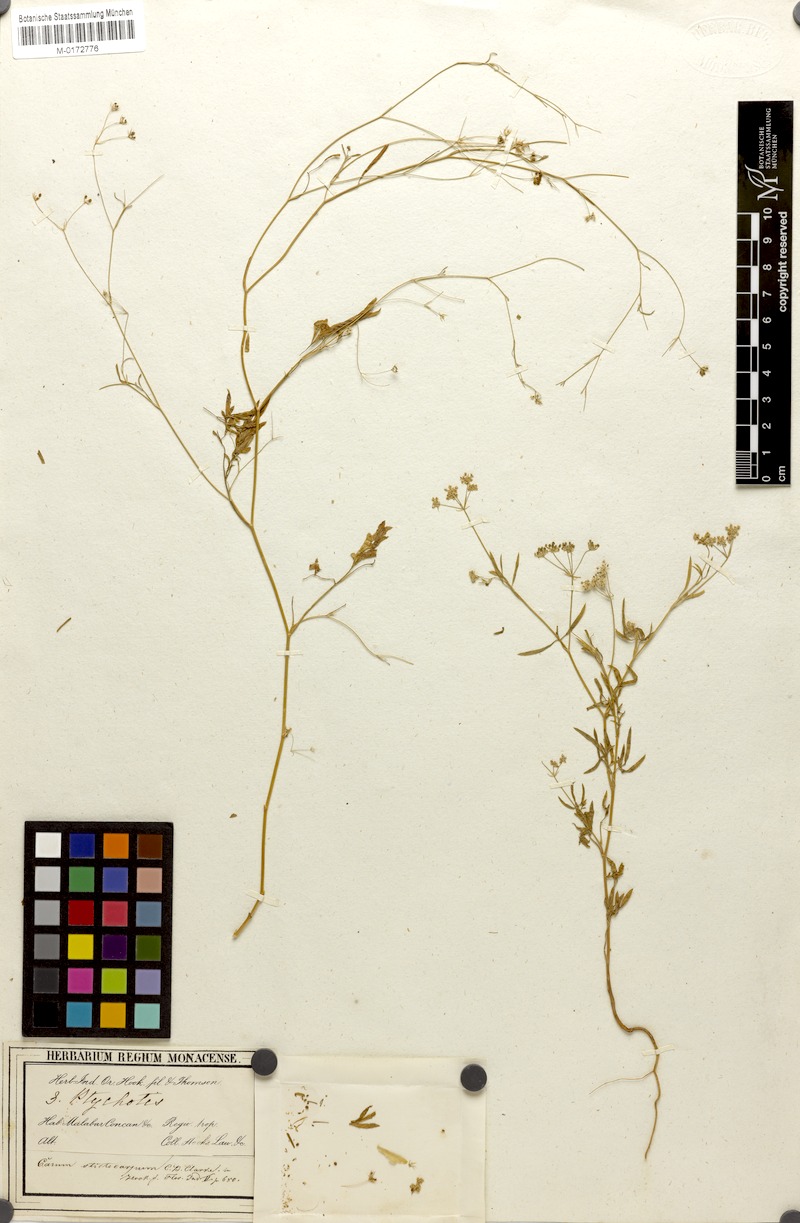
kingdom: Plantae
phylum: Tracheophyta
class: Magnoliopsida
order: Apiales
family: Apiaceae
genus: Psammogeton
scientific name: Psammogeton involucratum
